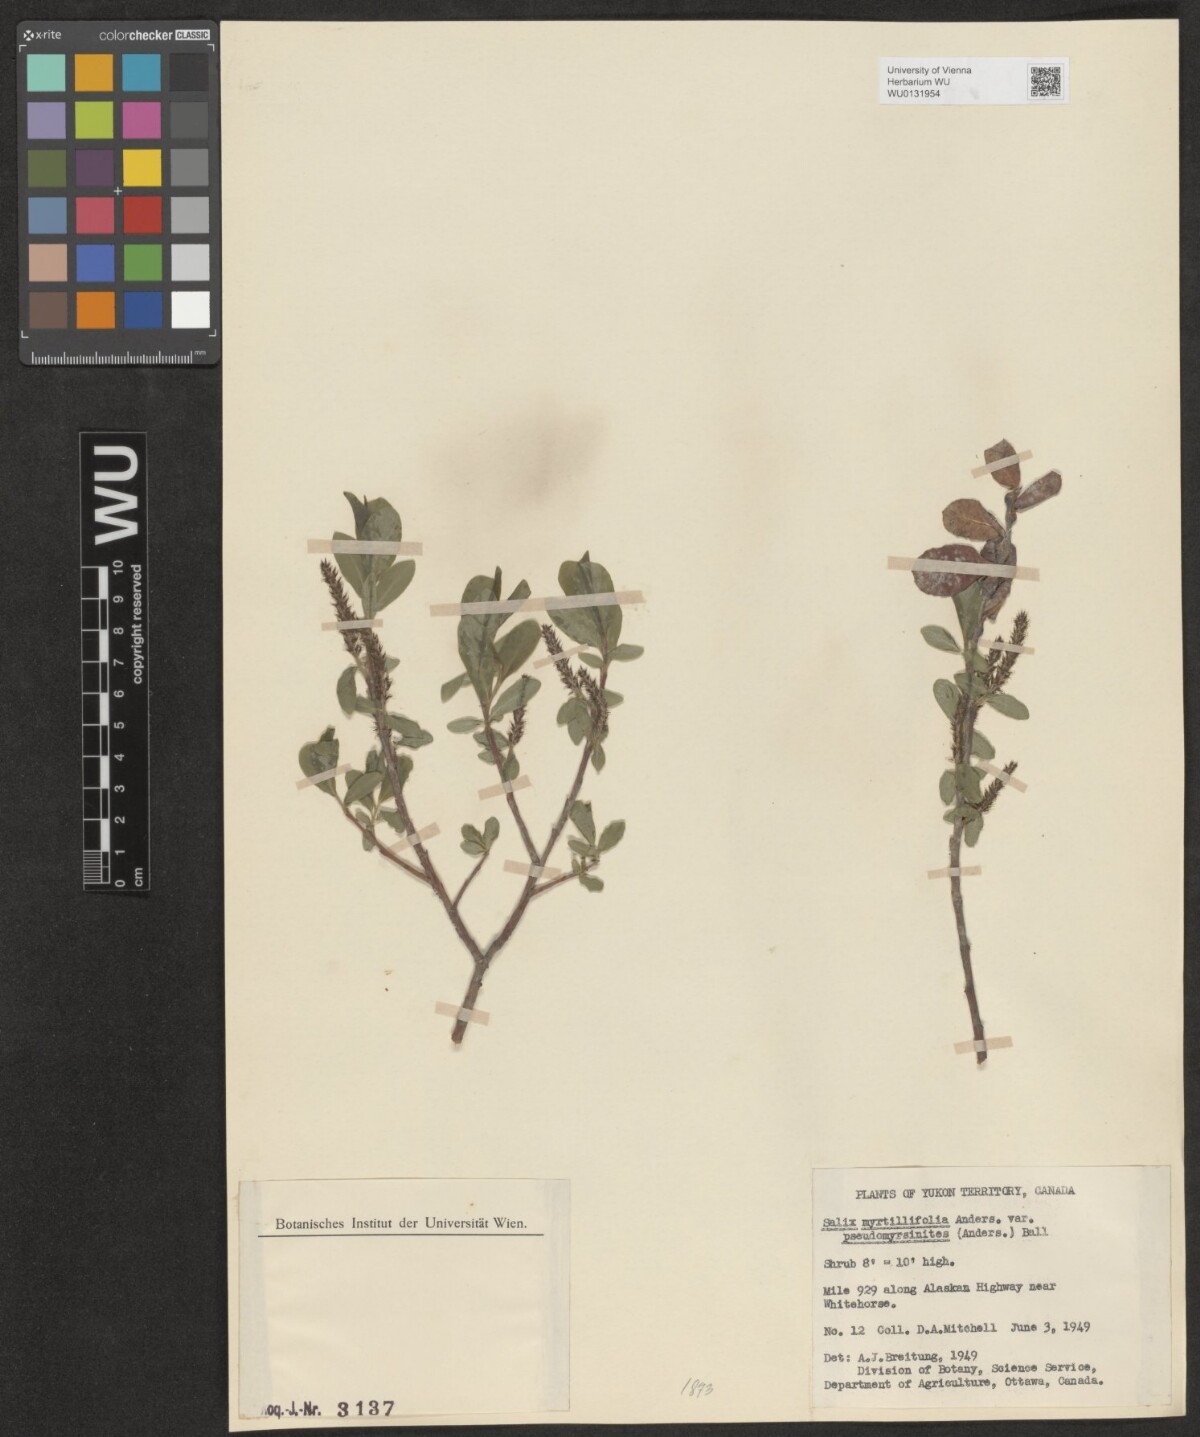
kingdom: Plantae
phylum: Tracheophyta
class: Magnoliopsida
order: Malpighiales
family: Salicaceae
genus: Salix
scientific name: Salix myrtillifolia
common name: Bilberry willow
